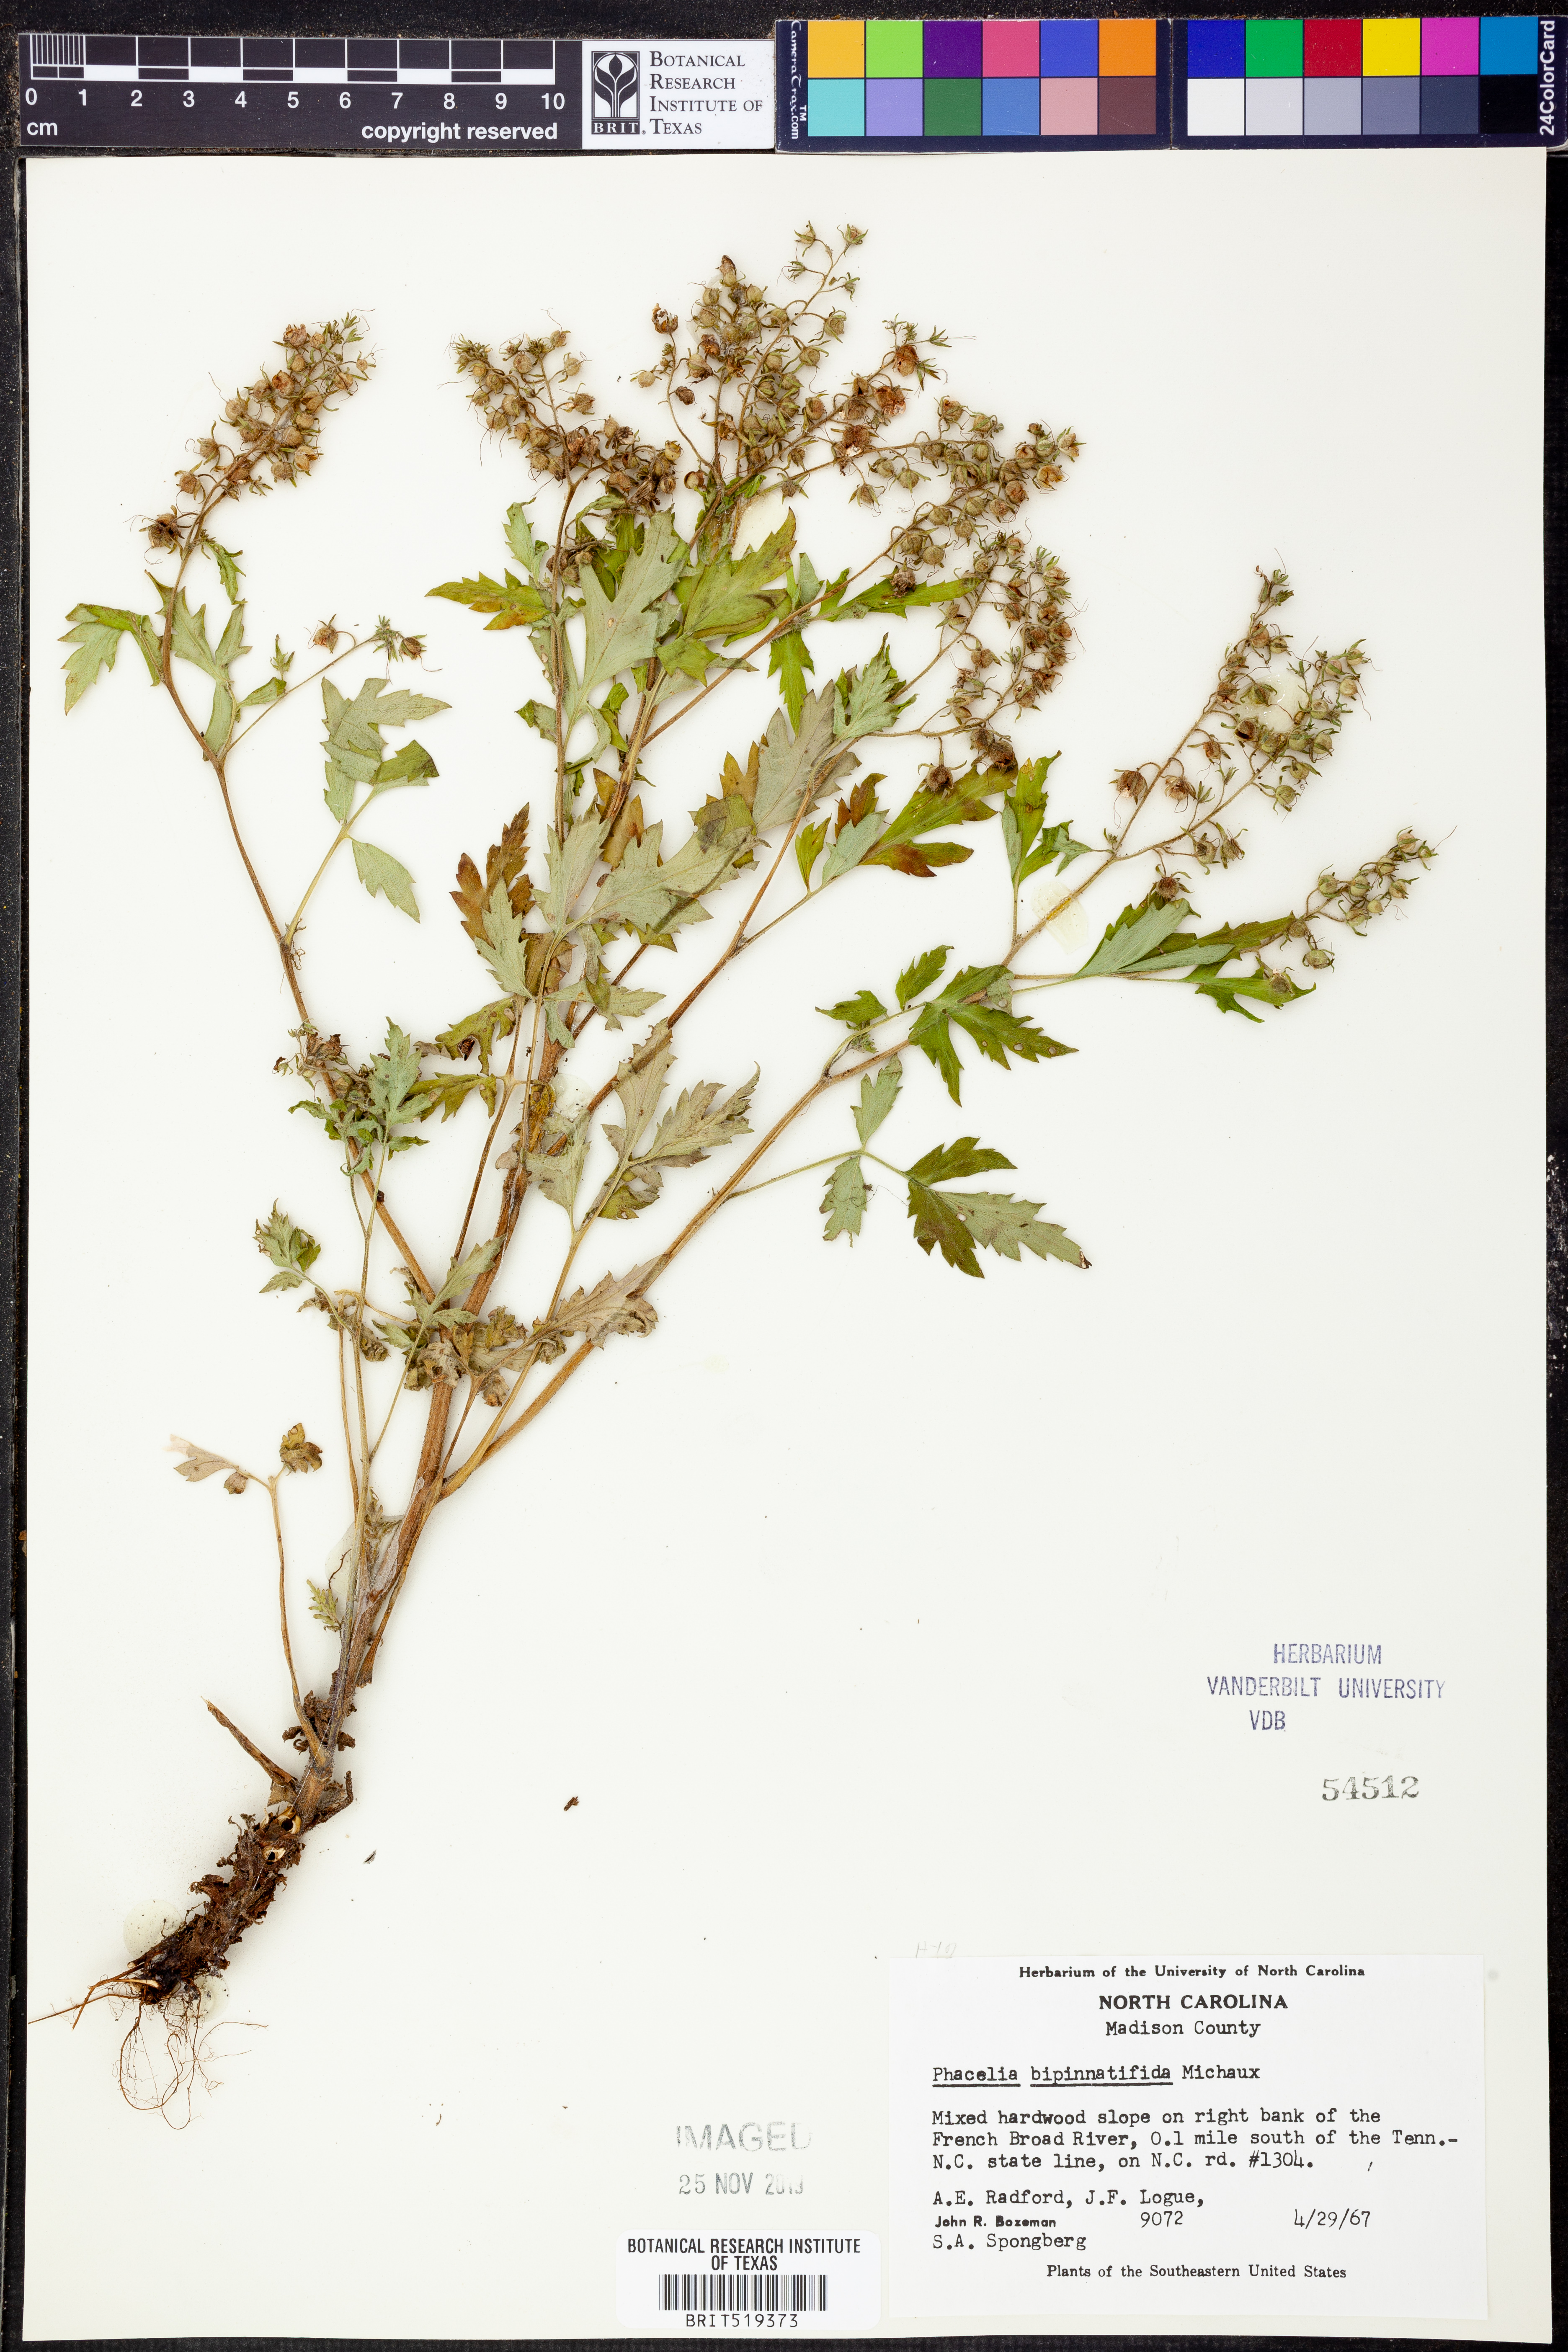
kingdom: Plantae
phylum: Tracheophyta
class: Magnoliopsida
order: Boraginales
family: Hydrophyllaceae
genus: Phacelia
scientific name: Phacelia bipinnatifida
